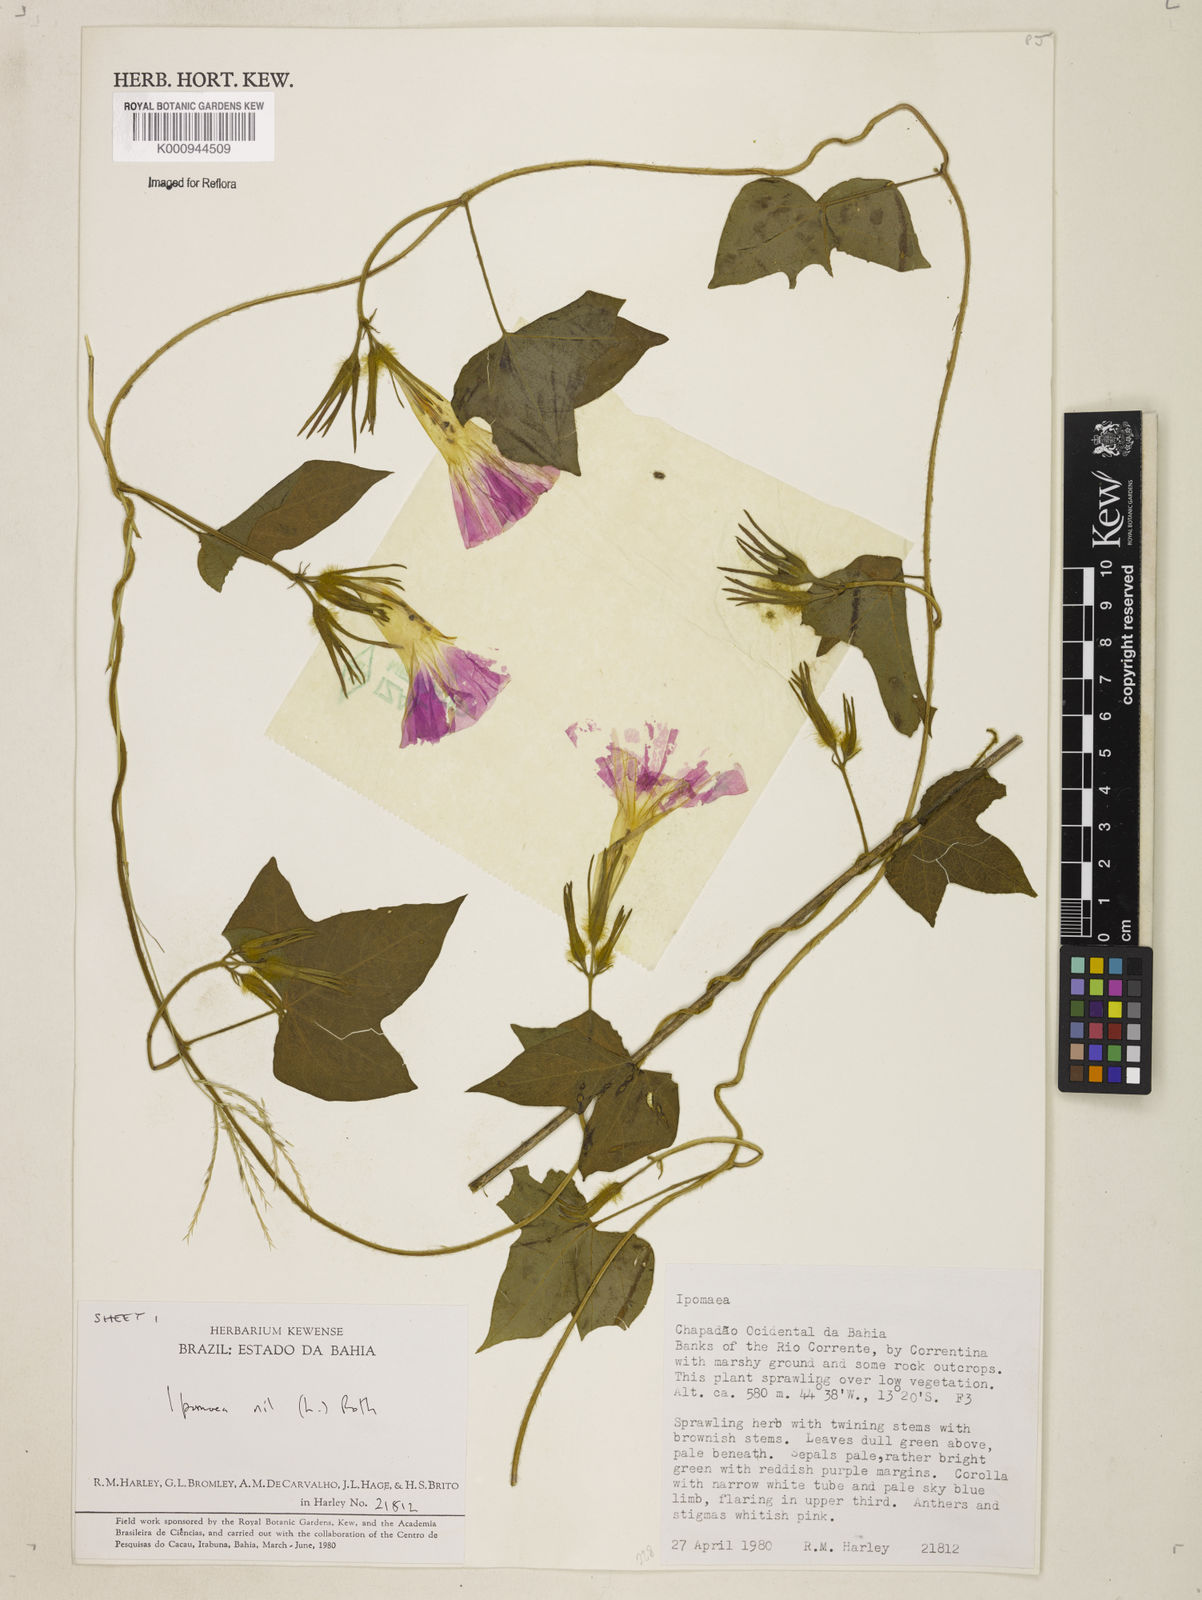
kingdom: Plantae
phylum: Tracheophyta
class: Magnoliopsida
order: Solanales
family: Convolvulaceae
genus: Ipomoea
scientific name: Ipomoea nil
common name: Japanese morning-glory
